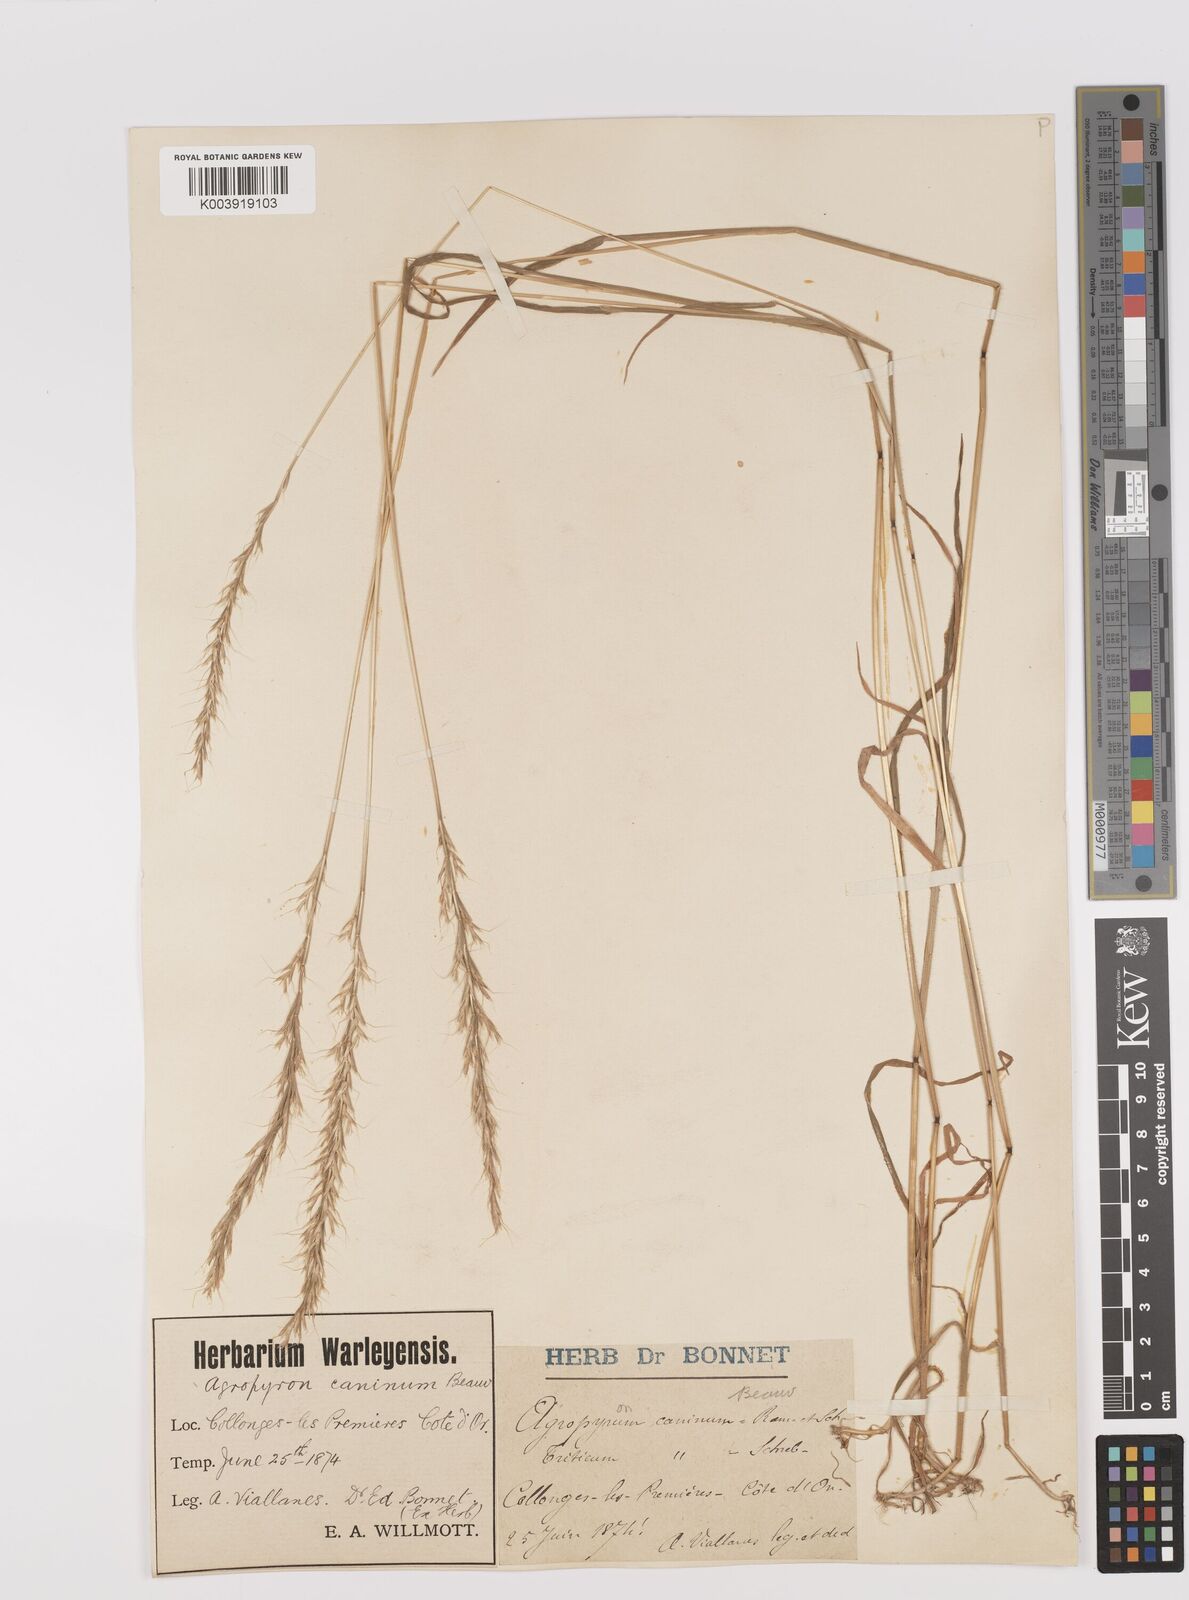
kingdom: Plantae
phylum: Tracheophyta
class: Liliopsida
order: Poales
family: Poaceae
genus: Gaudinia
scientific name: Gaudinia fragilis
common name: French oat-grass
